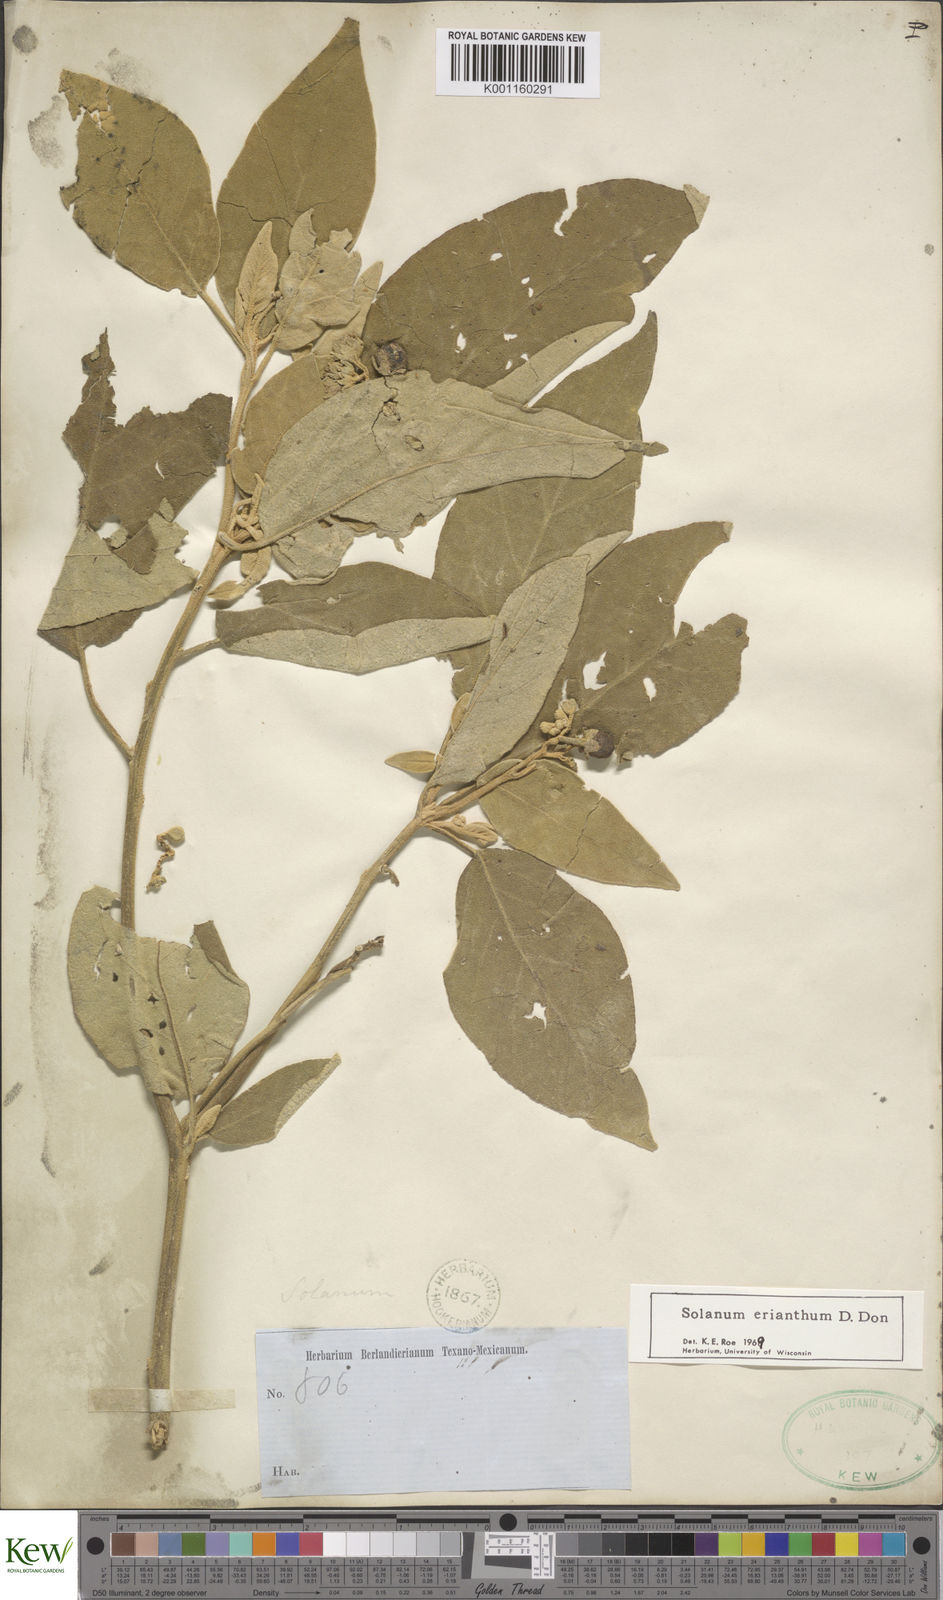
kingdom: Plantae
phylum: Tracheophyta
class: Magnoliopsida
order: Solanales
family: Solanaceae
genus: Solanum
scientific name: Solanum erianthum
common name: Tobacco-tree
